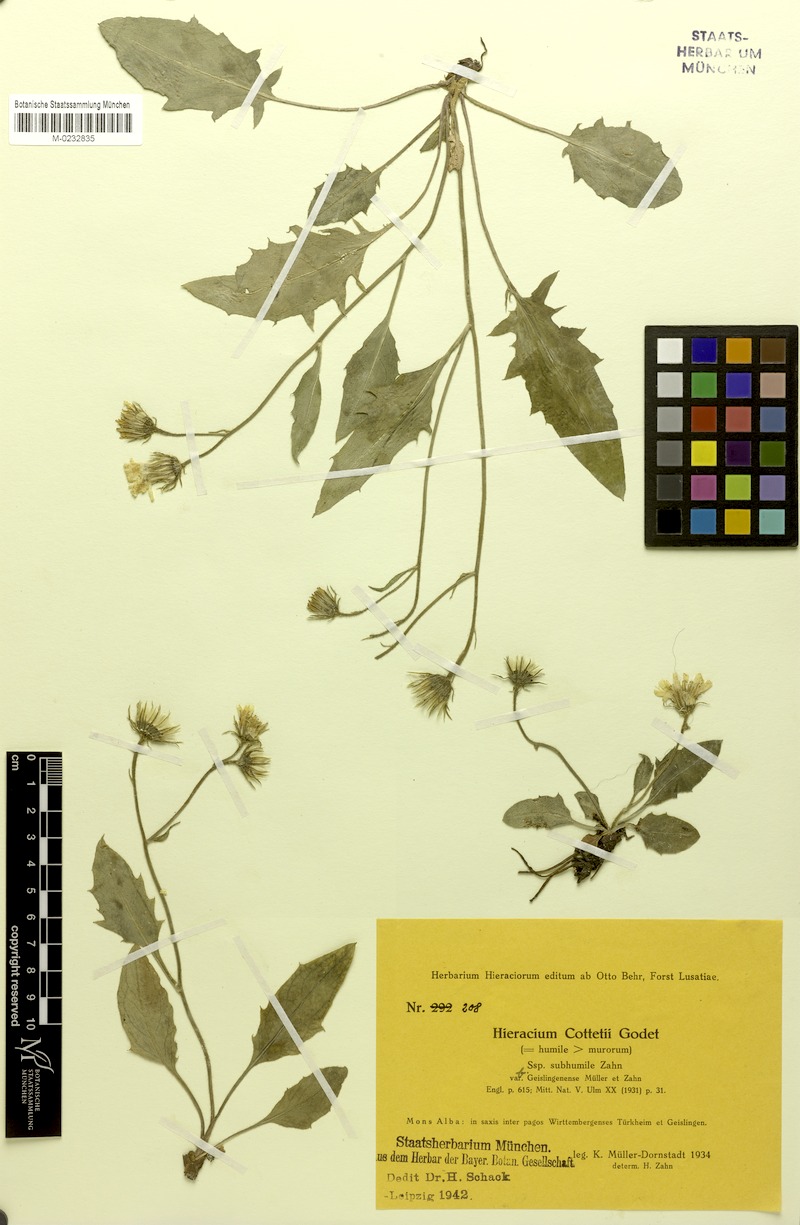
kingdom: Plantae
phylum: Tracheophyta
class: Magnoliopsida
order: Asterales
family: Asteraceae
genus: Hieracium
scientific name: Hieracium cottetii
